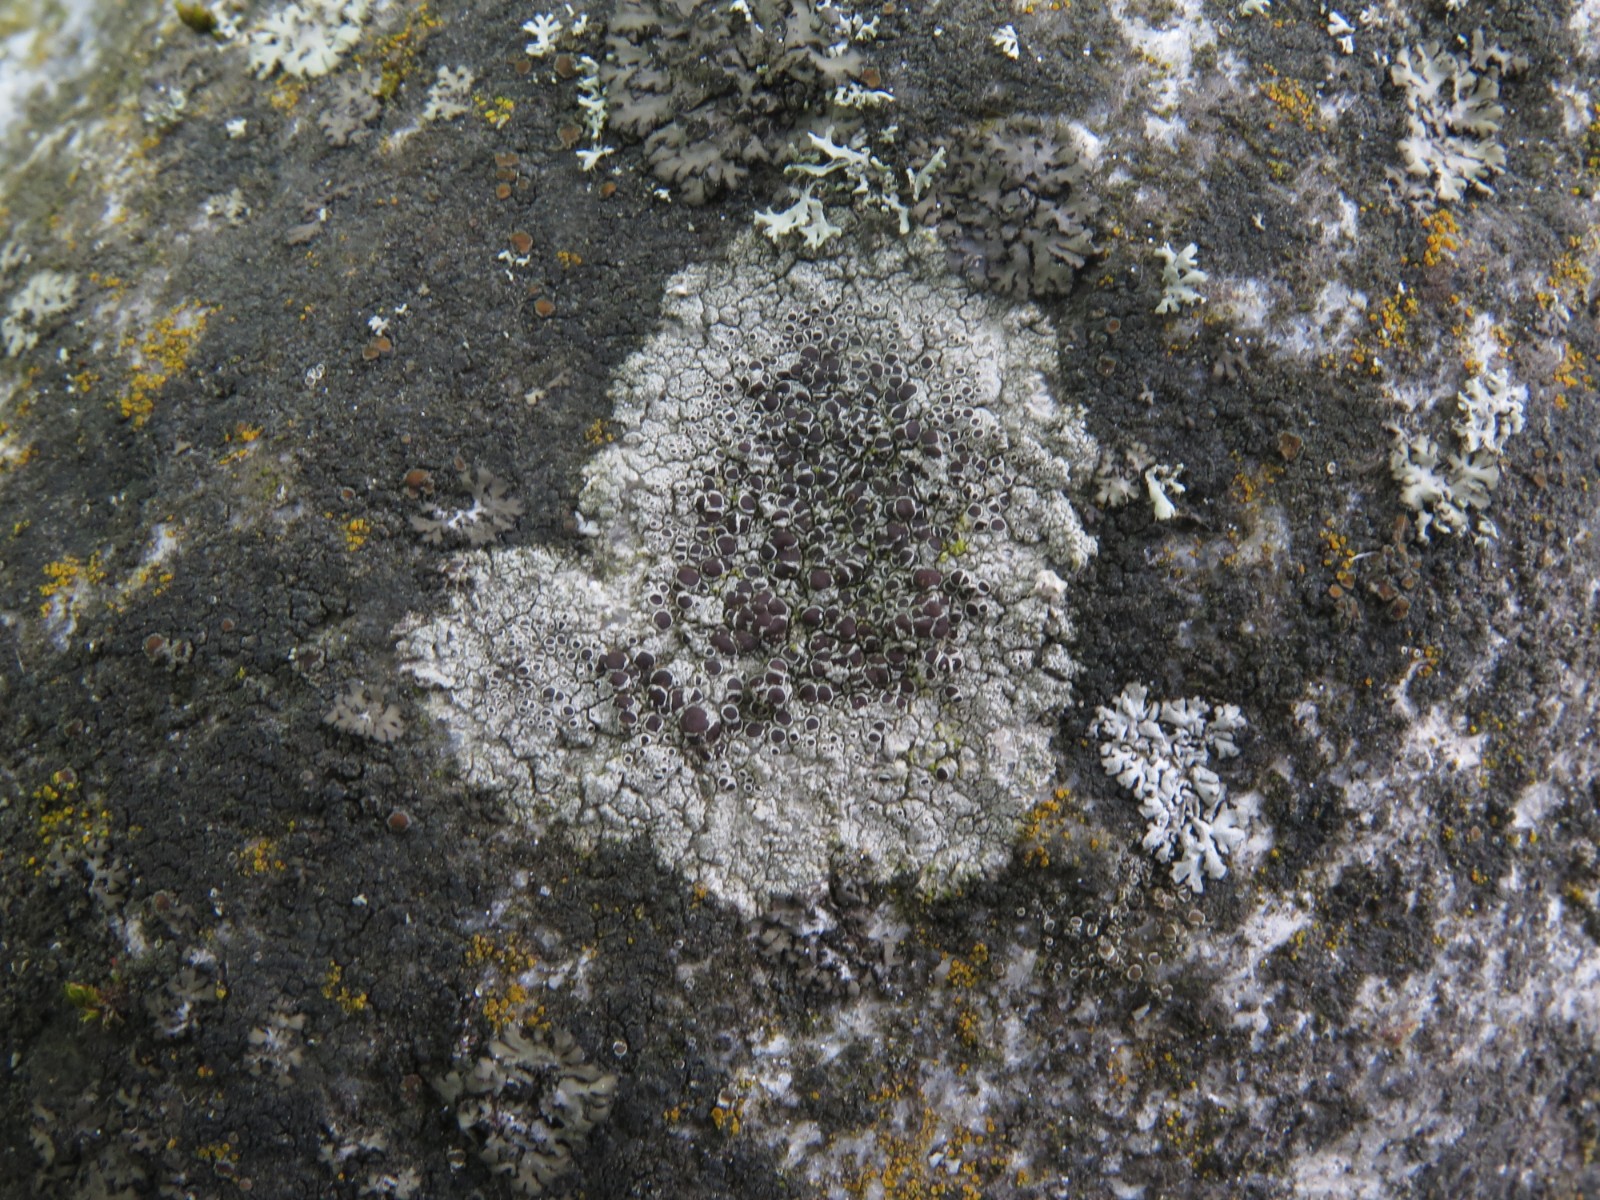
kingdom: Fungi
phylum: Ascomycota
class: Lecanoromycetes
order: Lecanorales
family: Lecanoraceae
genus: Lecanora
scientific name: Lecanora campestris
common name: mur-kantskivelav
